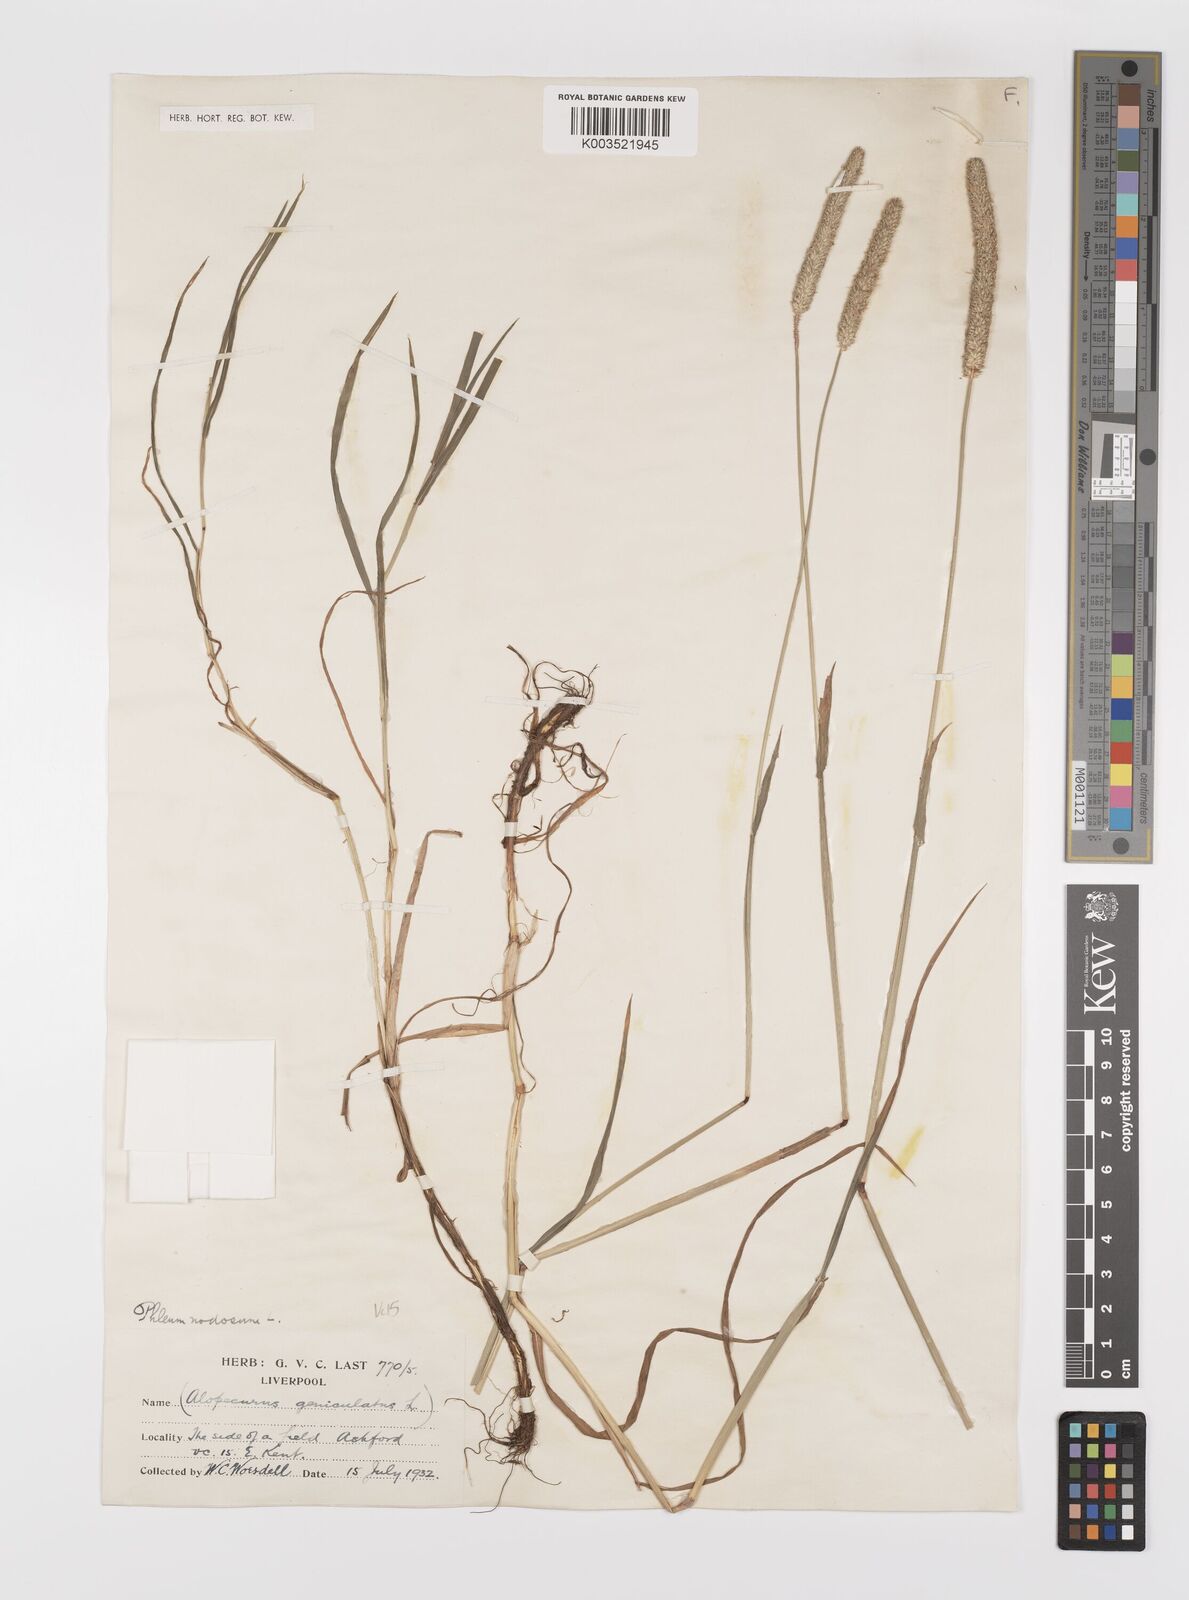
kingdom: Plantae
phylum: Tracheophyta
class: Liliopsida
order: Poales
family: Poaceae
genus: Phleum
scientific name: Phleum bertolonii
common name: Smaller cat's-tail
